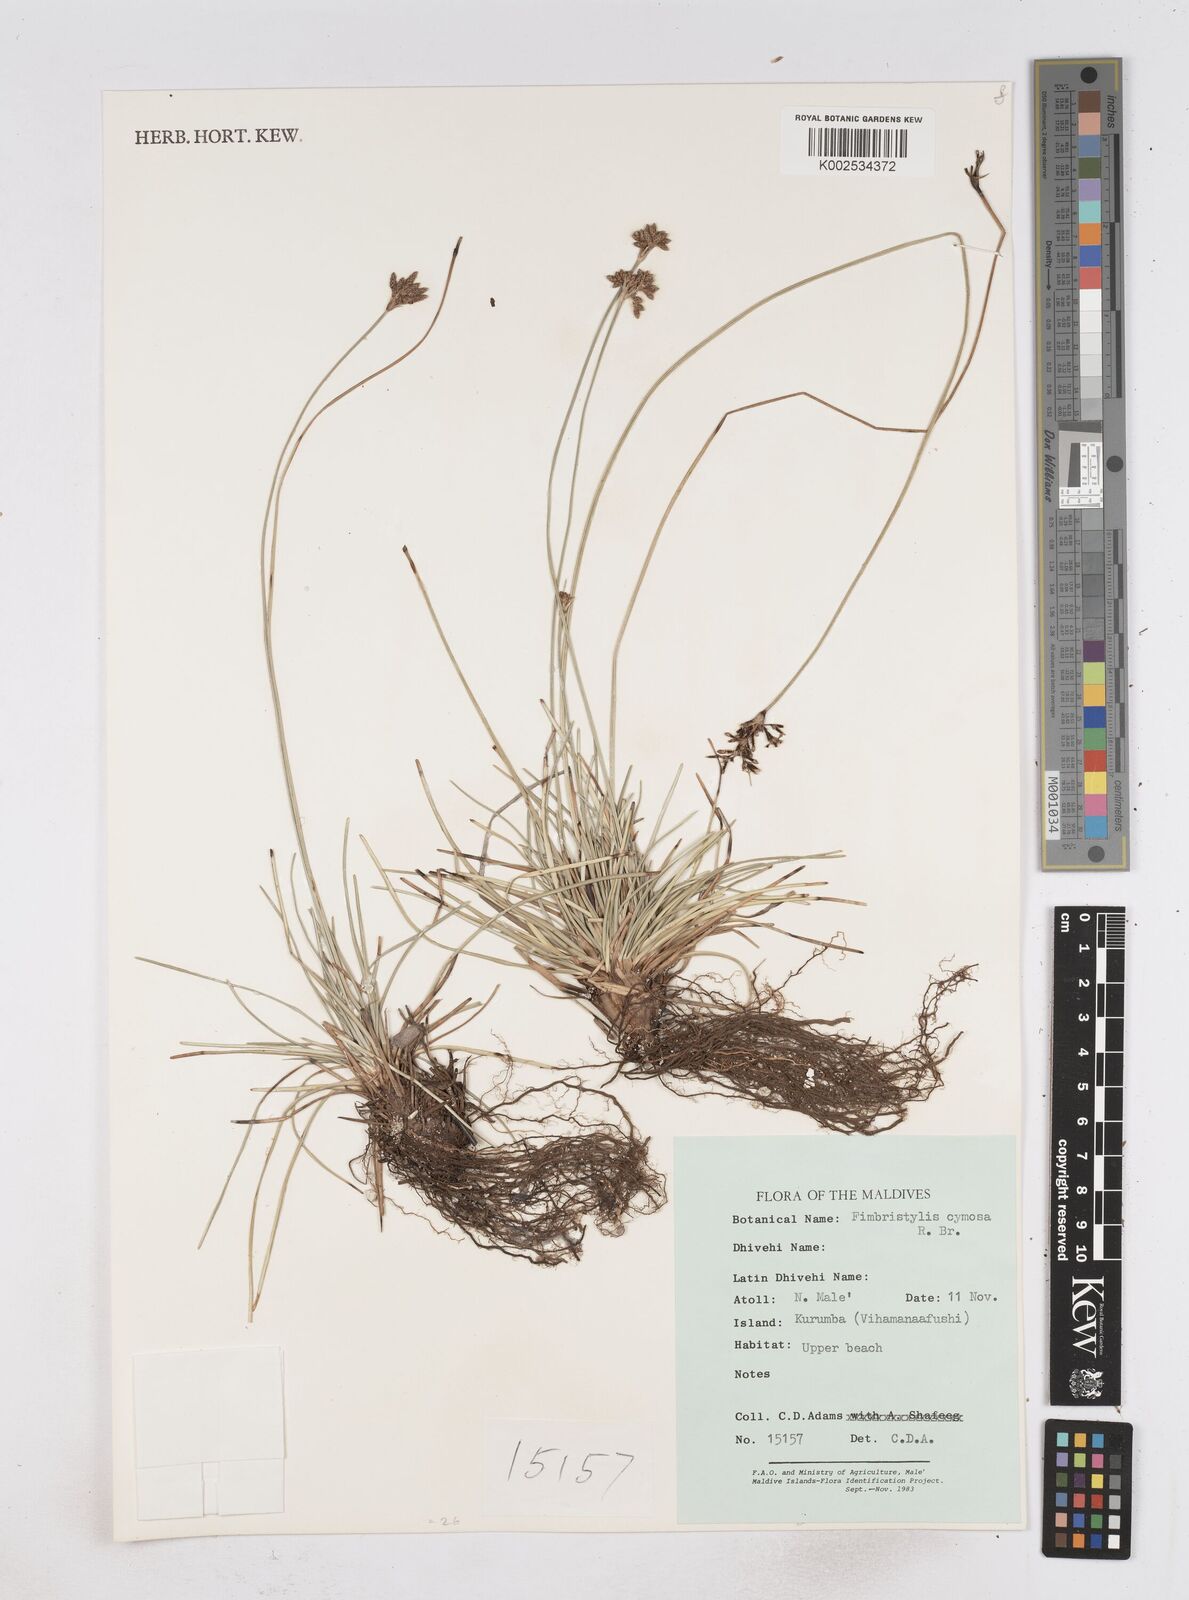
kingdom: Plantae
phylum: Tracheophyta
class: Liliopsida
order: Poales
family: Cyperaceae
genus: Fimbristylis
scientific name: Fimbristylis cymosa
